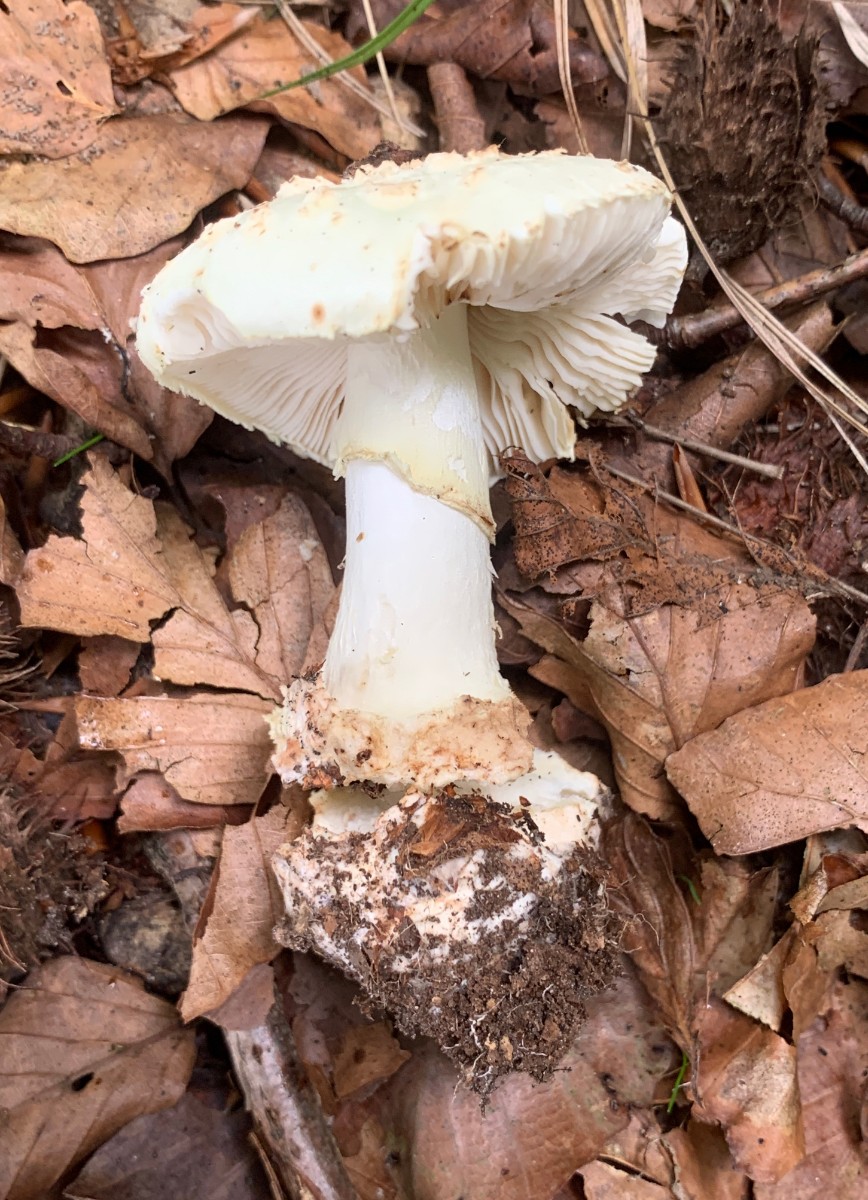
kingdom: Fungi
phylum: Basidiomycota
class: Agaricomycetes
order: Agaricales
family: Amanitaceae
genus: Amanita
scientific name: Amanita citrina
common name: kugleknoldet fluesvamp
